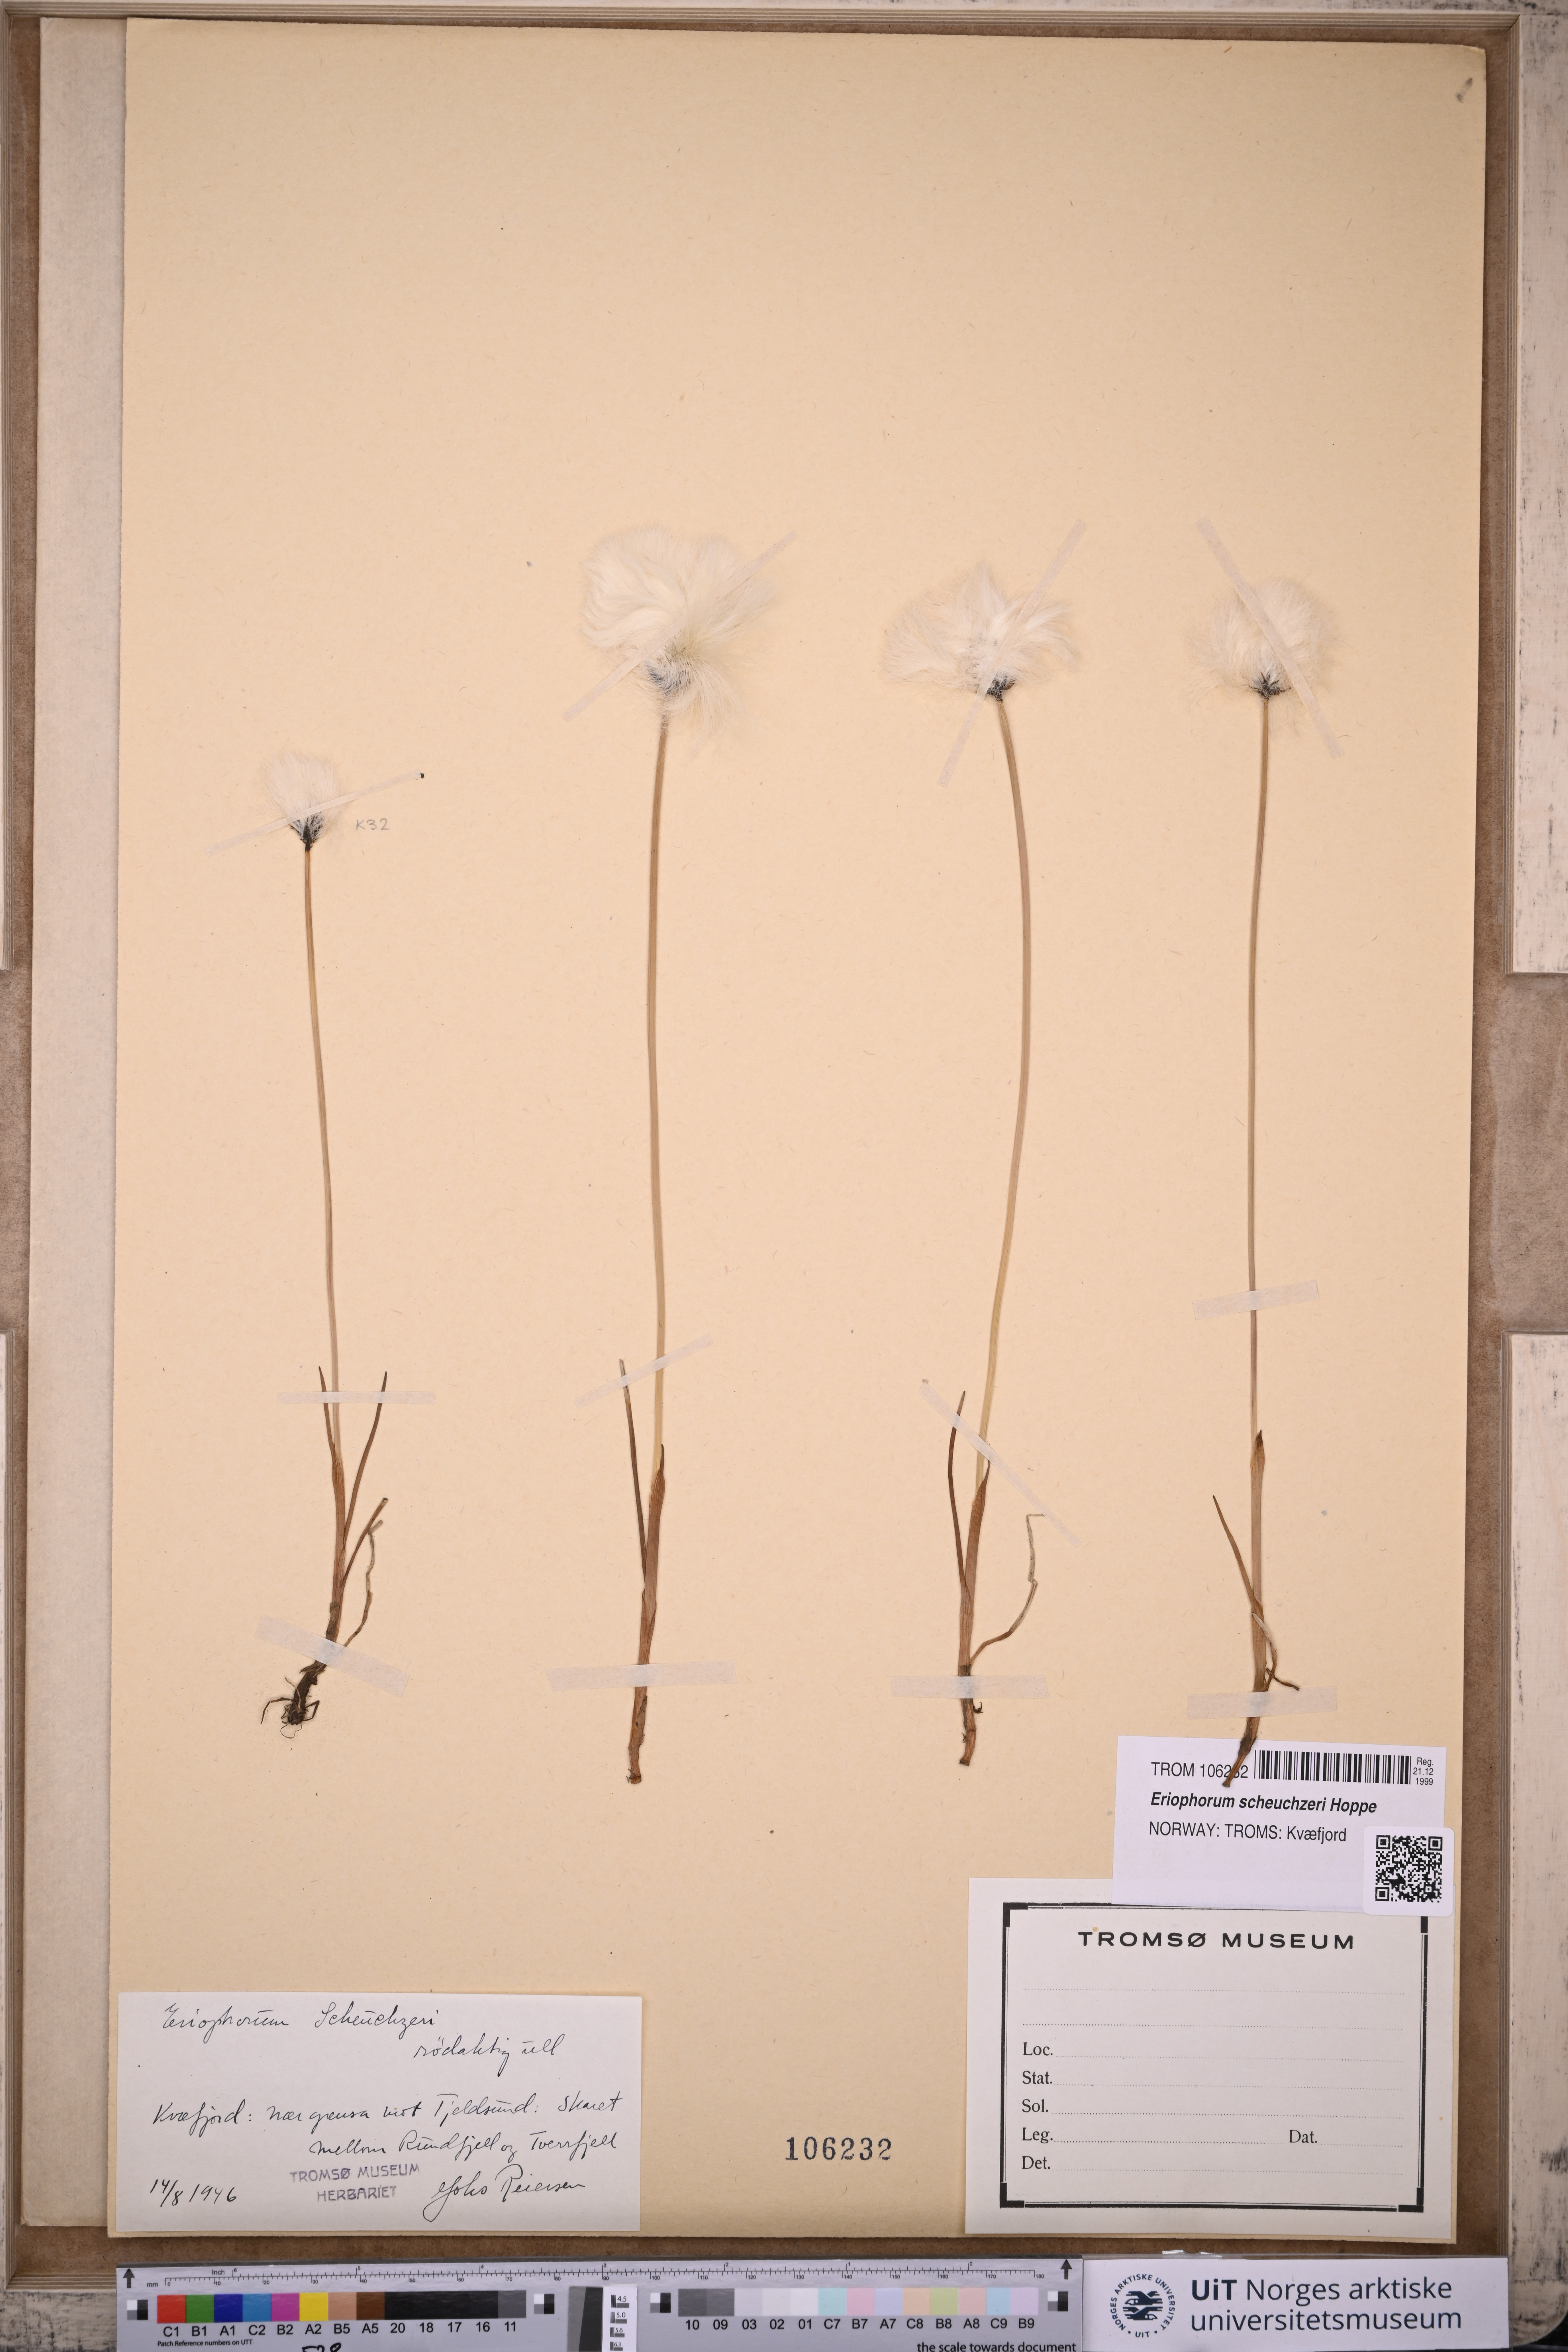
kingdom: Plantae
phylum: Tracheophyta
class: Liliopsida
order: Poales
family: Cyperaceae
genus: Eriophorum
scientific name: Eriophorum scheuchzeri
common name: Scheuchzer's cottongrass
